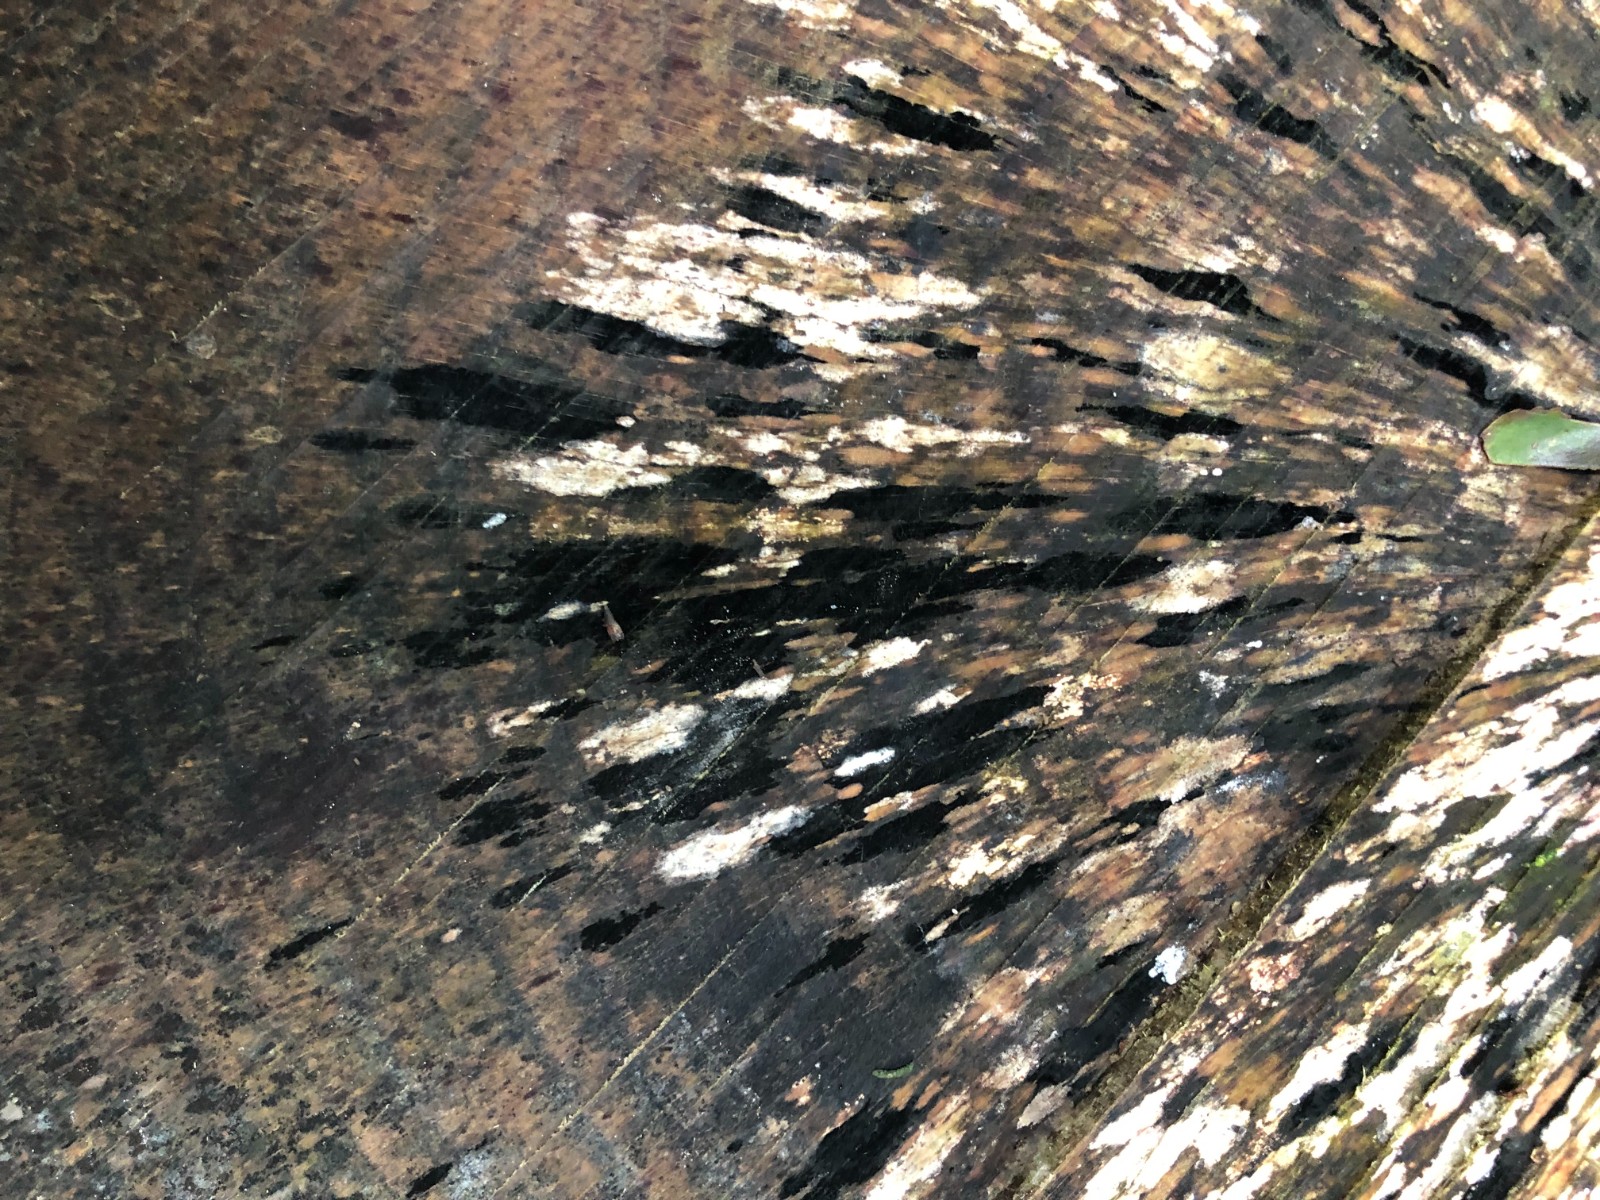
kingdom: Fungi
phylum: Ascomycota
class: Leotiomycetes
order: Helotiales
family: Helotiaceae
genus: Bispora
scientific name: Bispora pallescens
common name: måtte-snitskive
